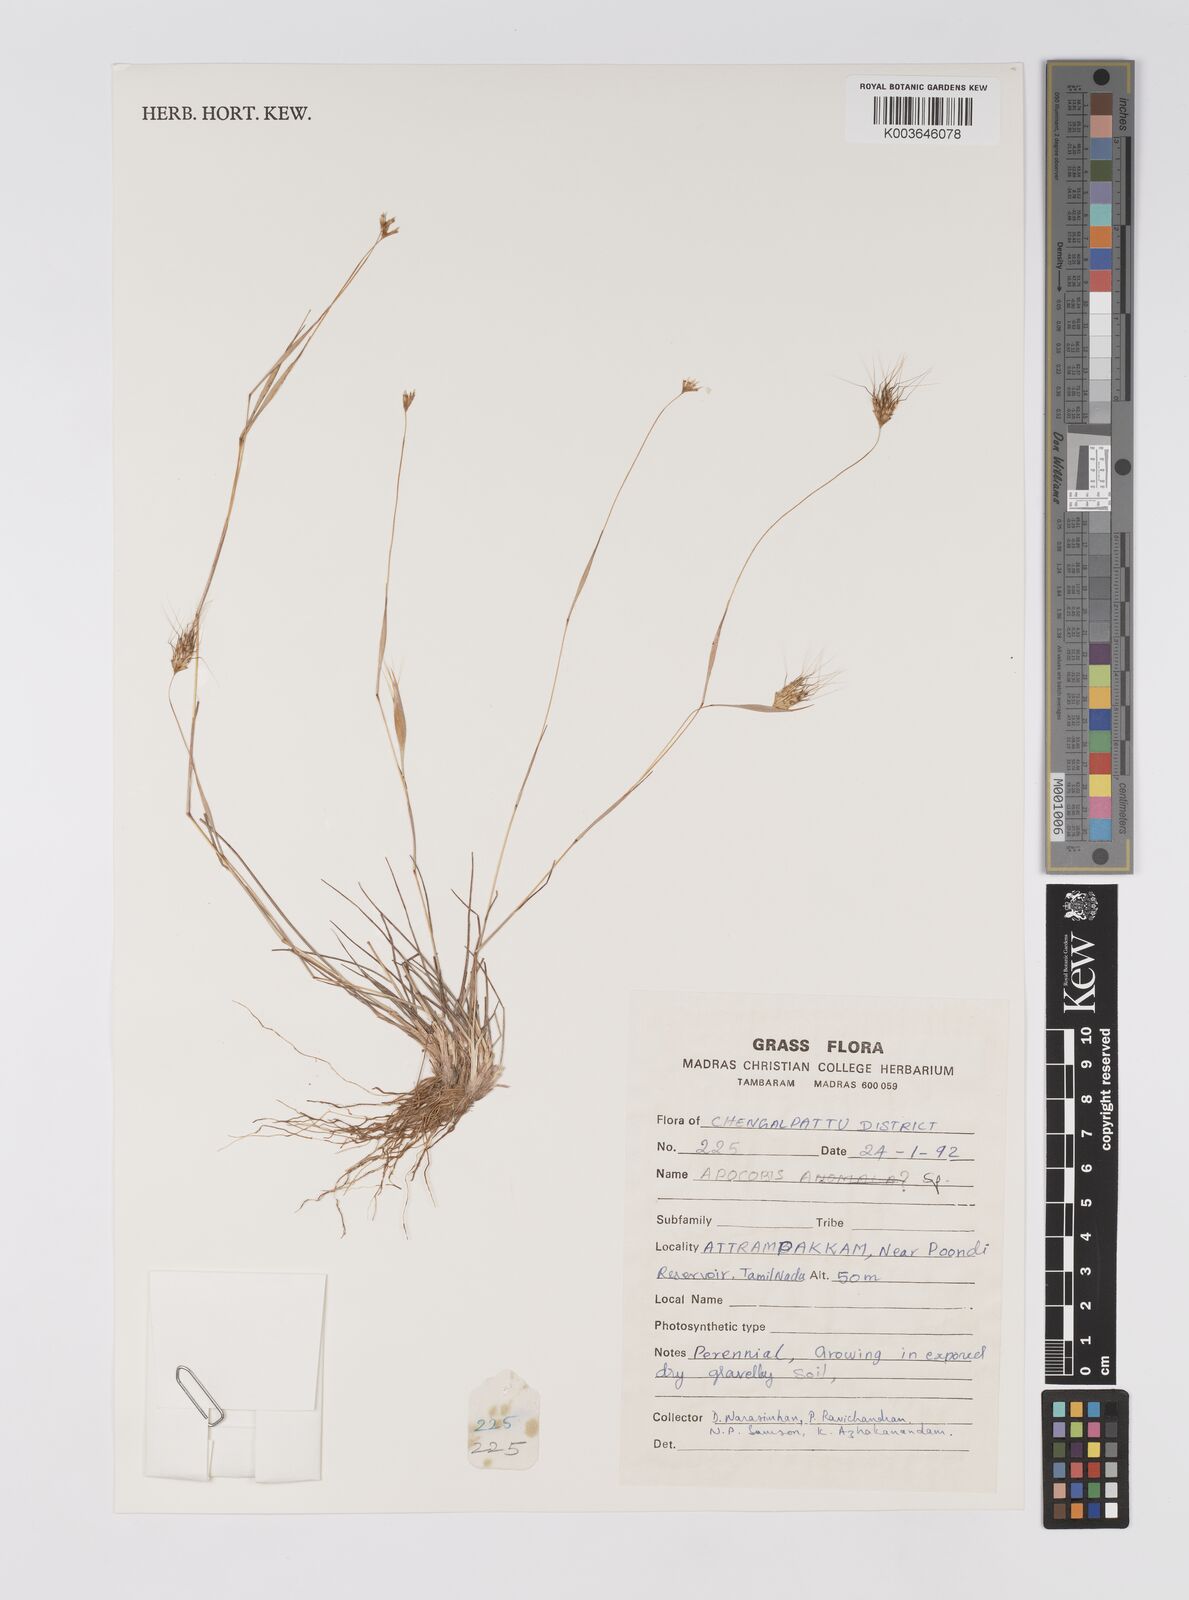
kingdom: Plantae
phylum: Tracheophyta
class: Liliopsida
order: Poales
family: Poaceae
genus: Apocopis
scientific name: Apocopis
